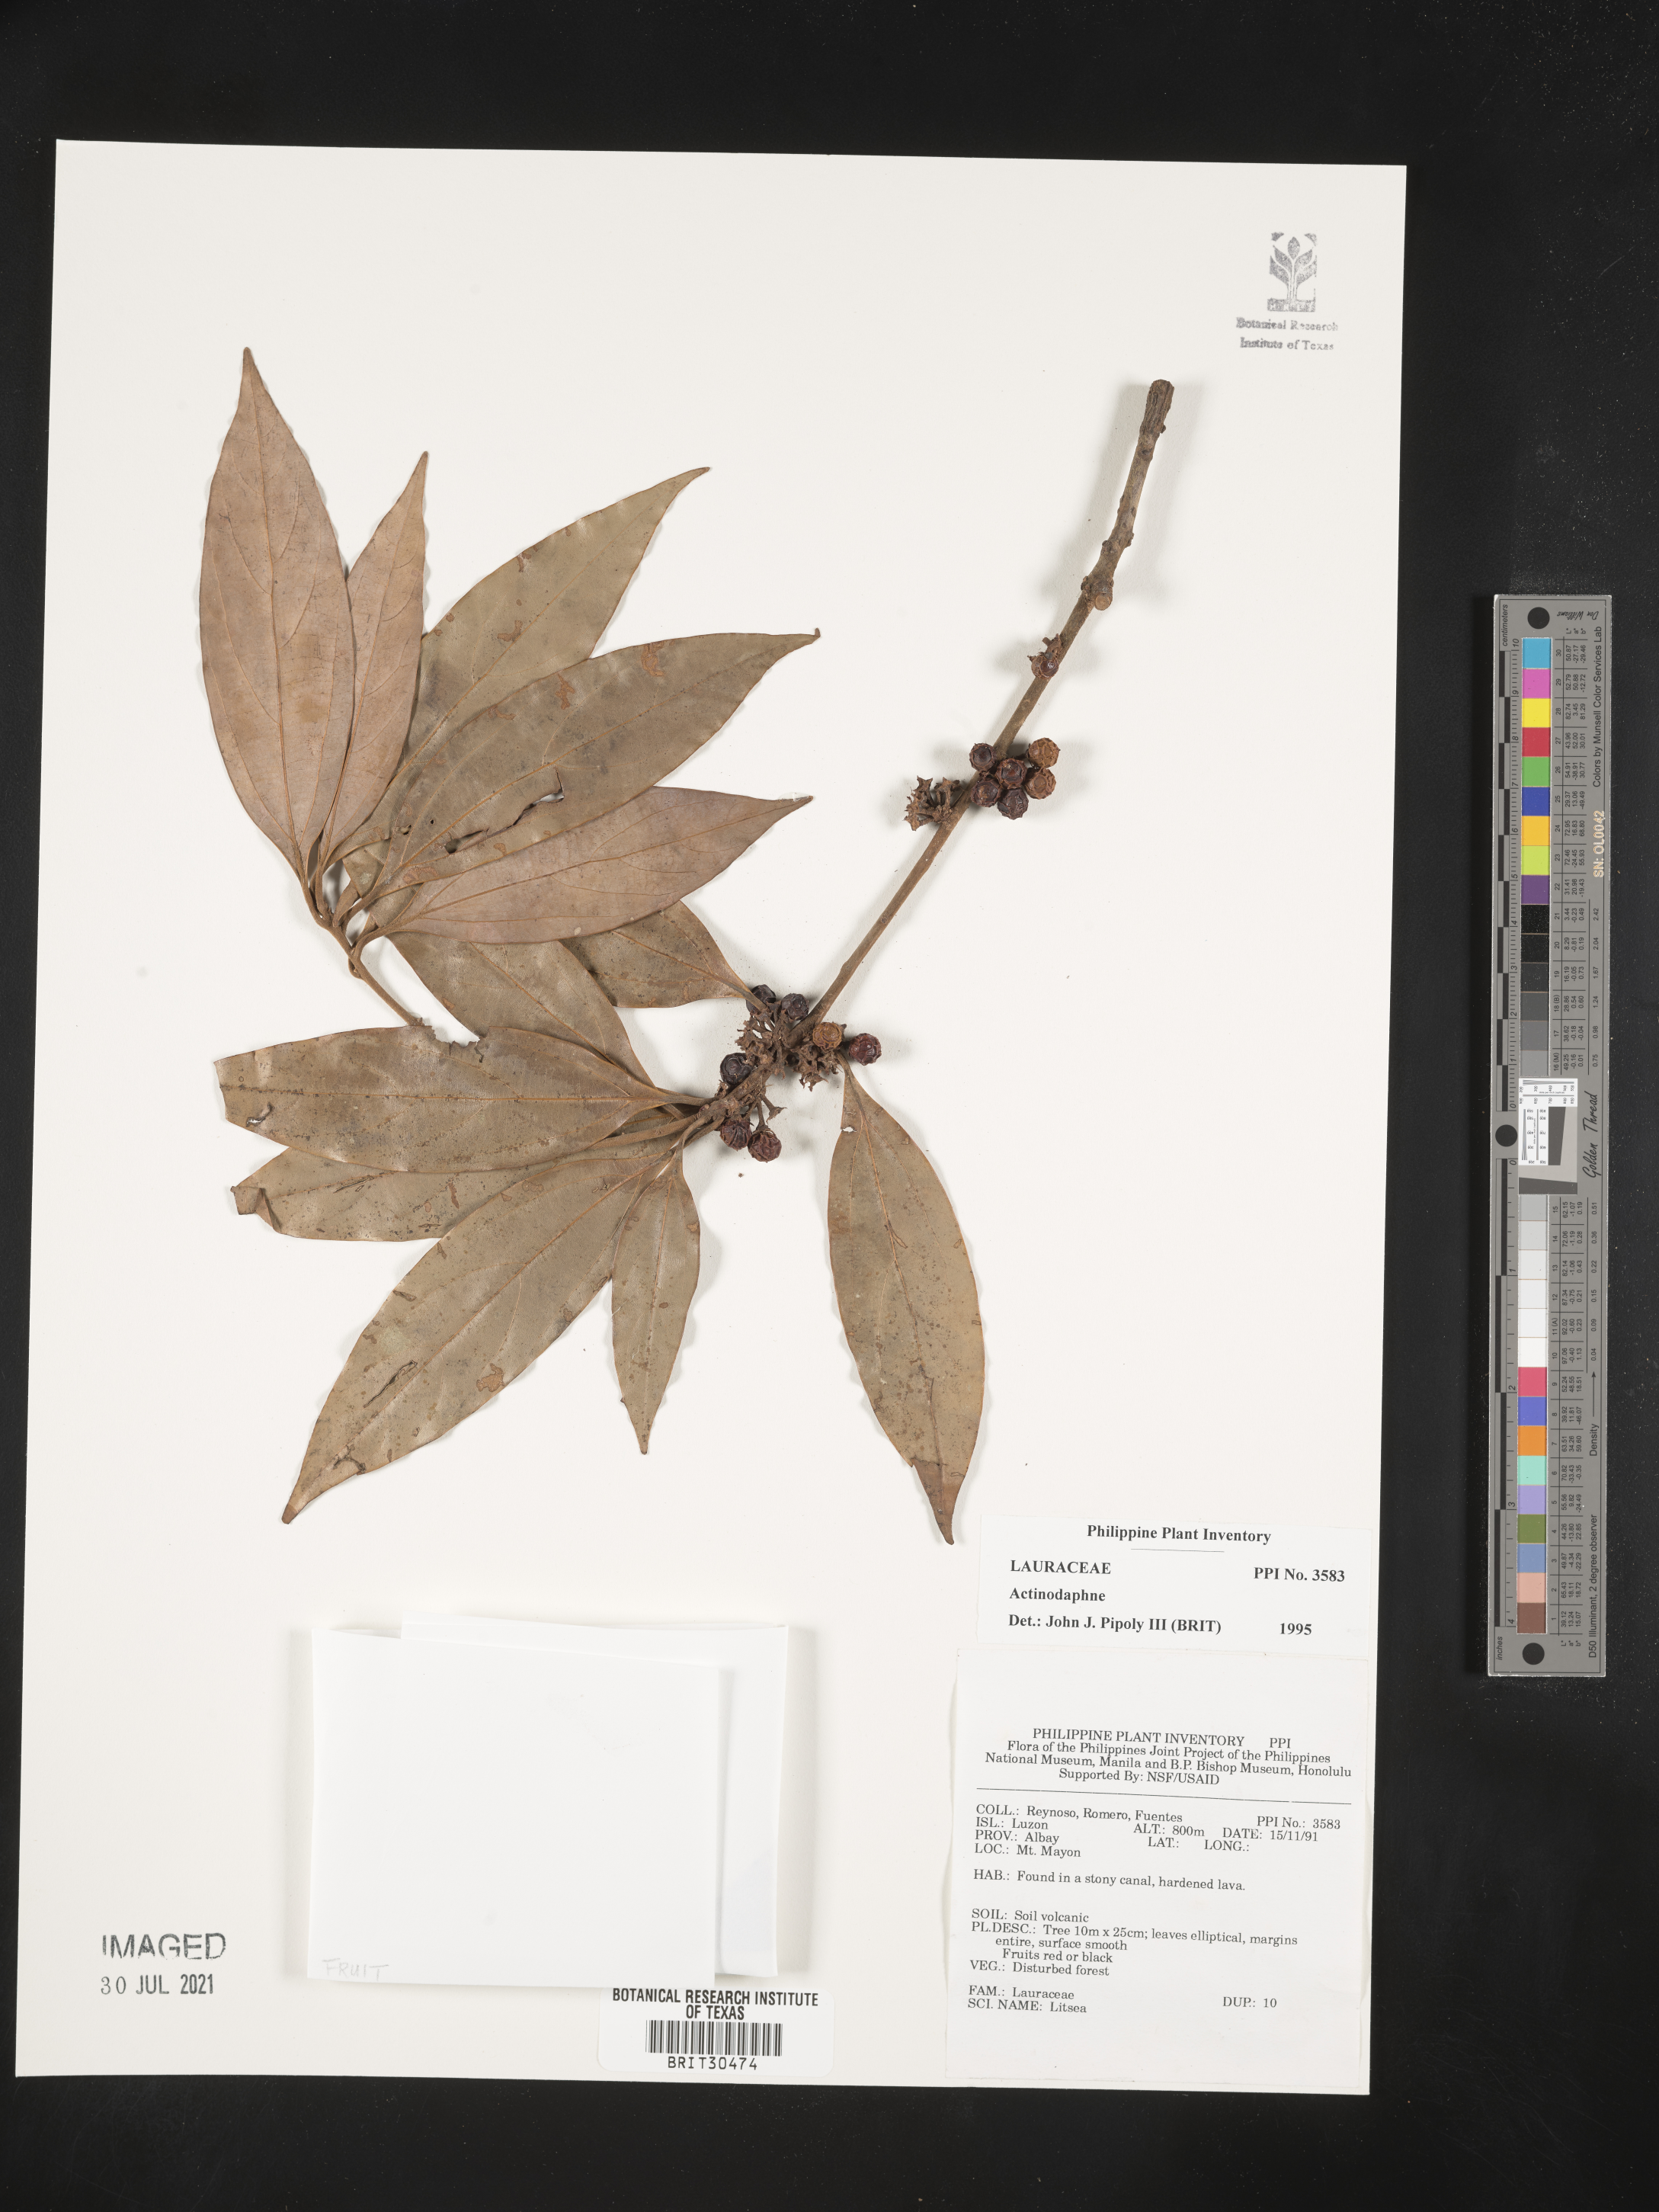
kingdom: Plantae
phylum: Tracheophyta
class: Magnoliopsida
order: Laurales
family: Lauraceae
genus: Actinodaphne
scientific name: Actinodaphne
